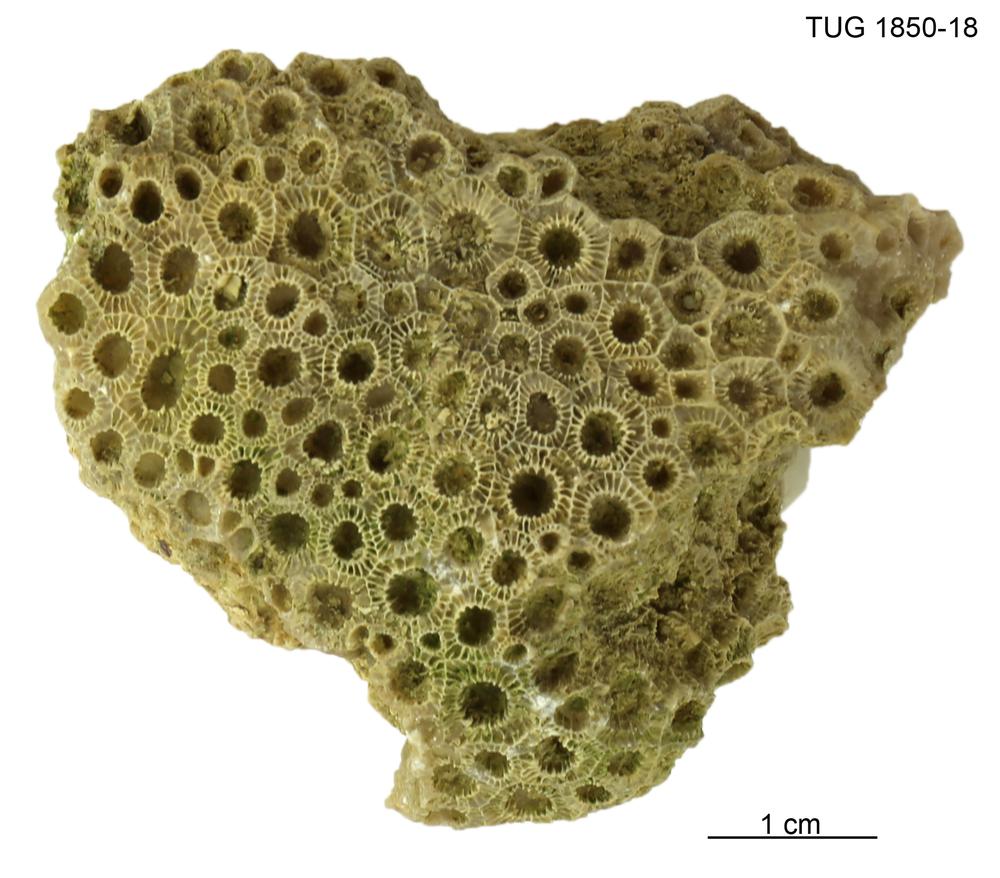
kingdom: Animalia
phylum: Cnidaria
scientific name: Cnidaria
